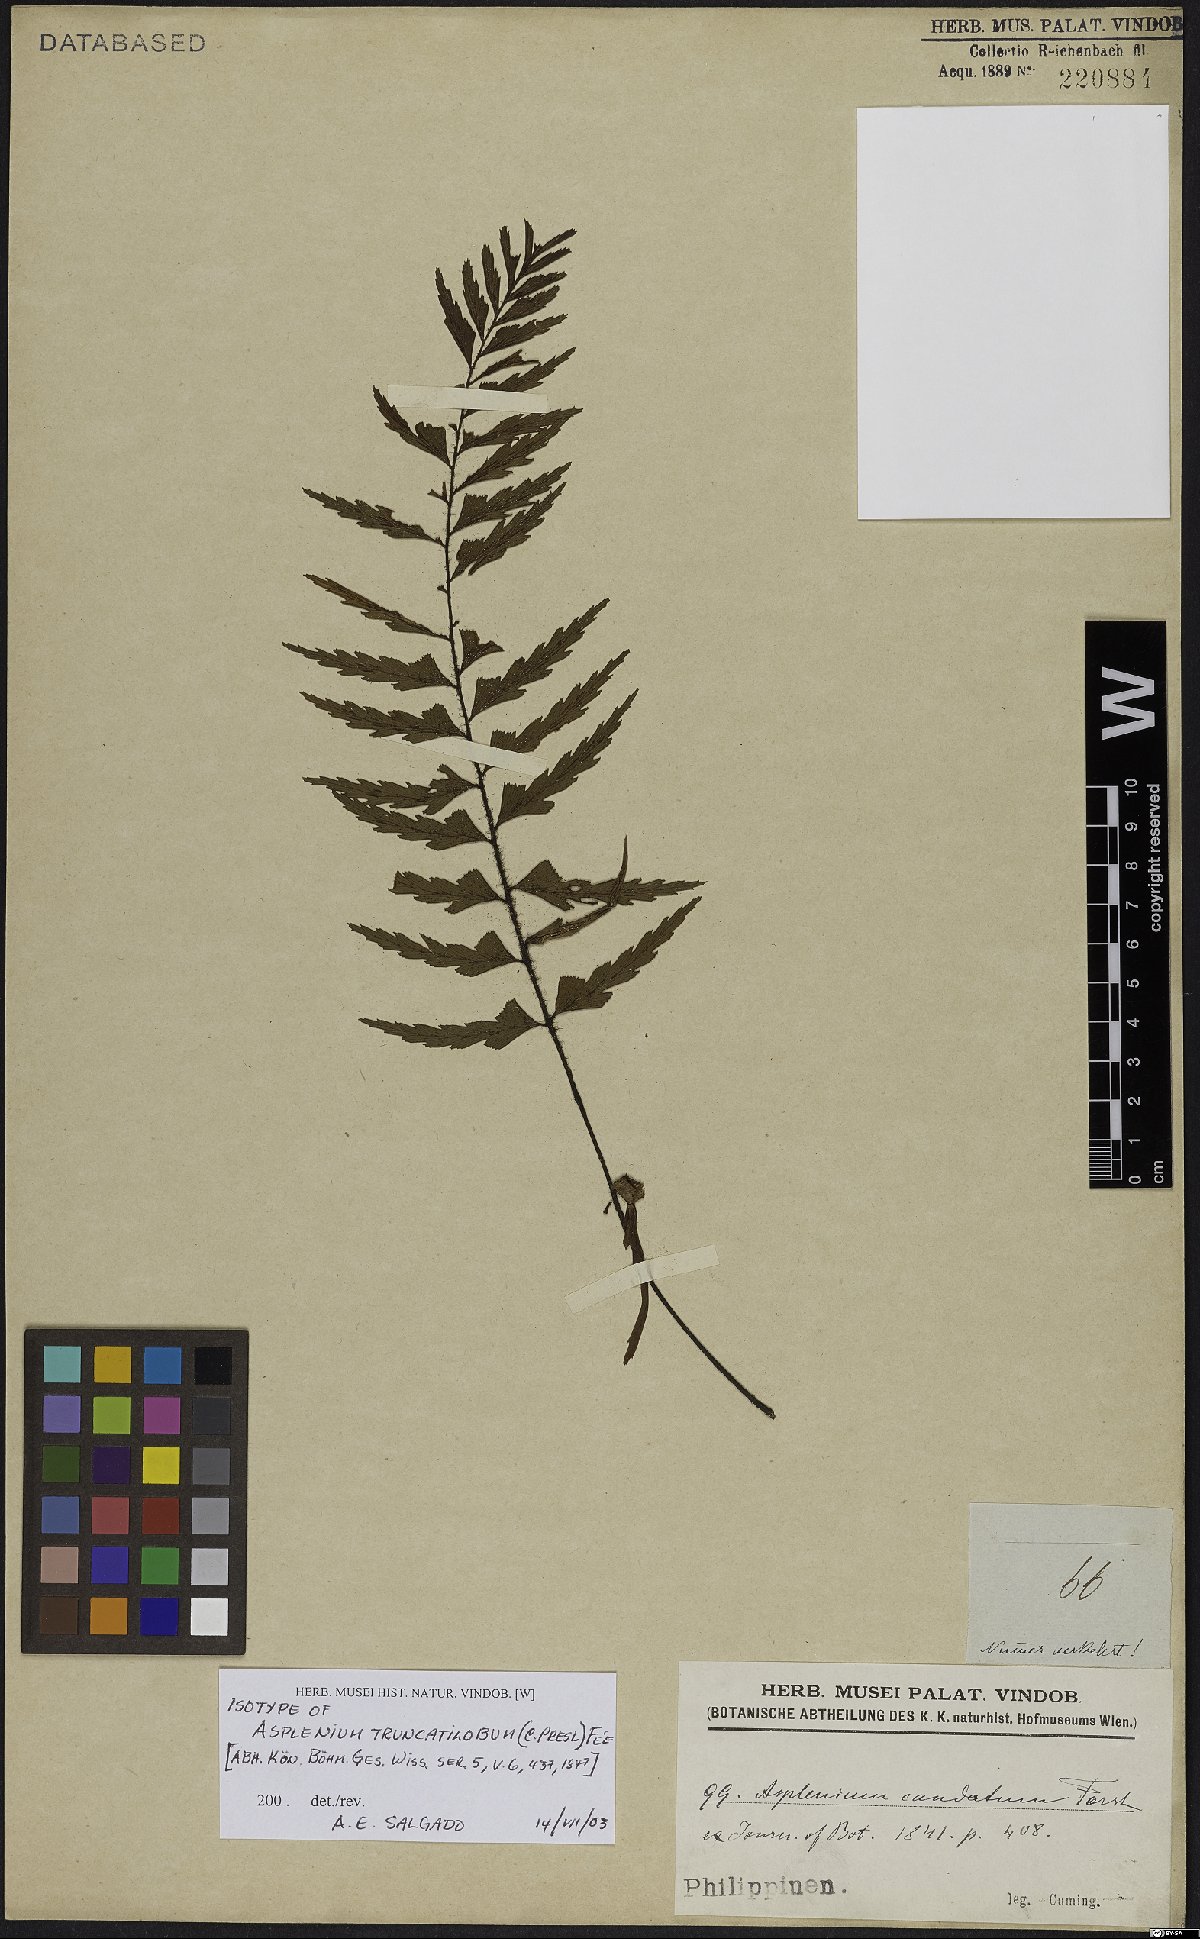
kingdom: Plantae
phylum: Tracheophyta
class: Polypodiopsida
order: Polypodiales
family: Aspleniaceae
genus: Asplenium
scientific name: Asplenium truncatilobum
